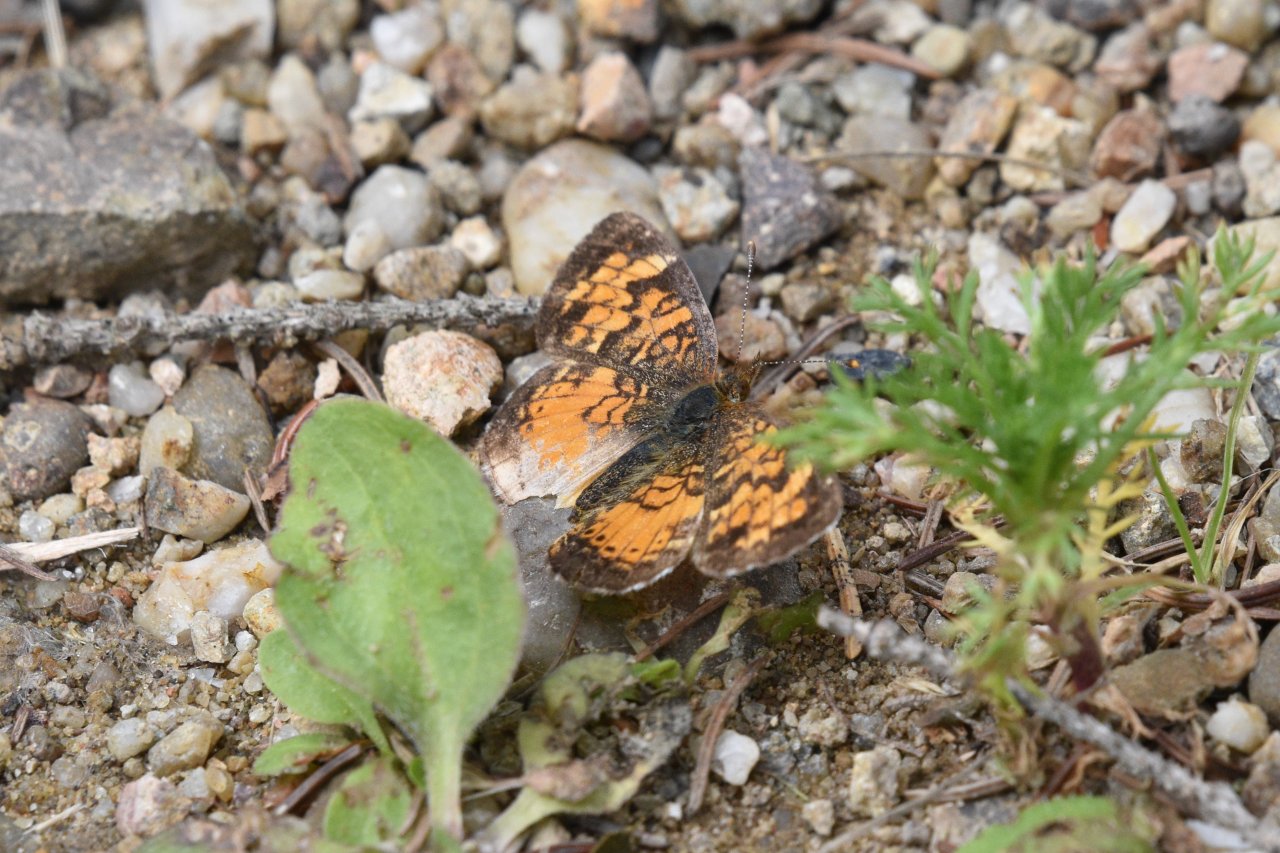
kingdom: Animalia
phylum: Arthropoda
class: Insecta
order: Lepidoptera
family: Nymphalidae
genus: Phyciodes
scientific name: Phyciodes tharos
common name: Northern Crescent
